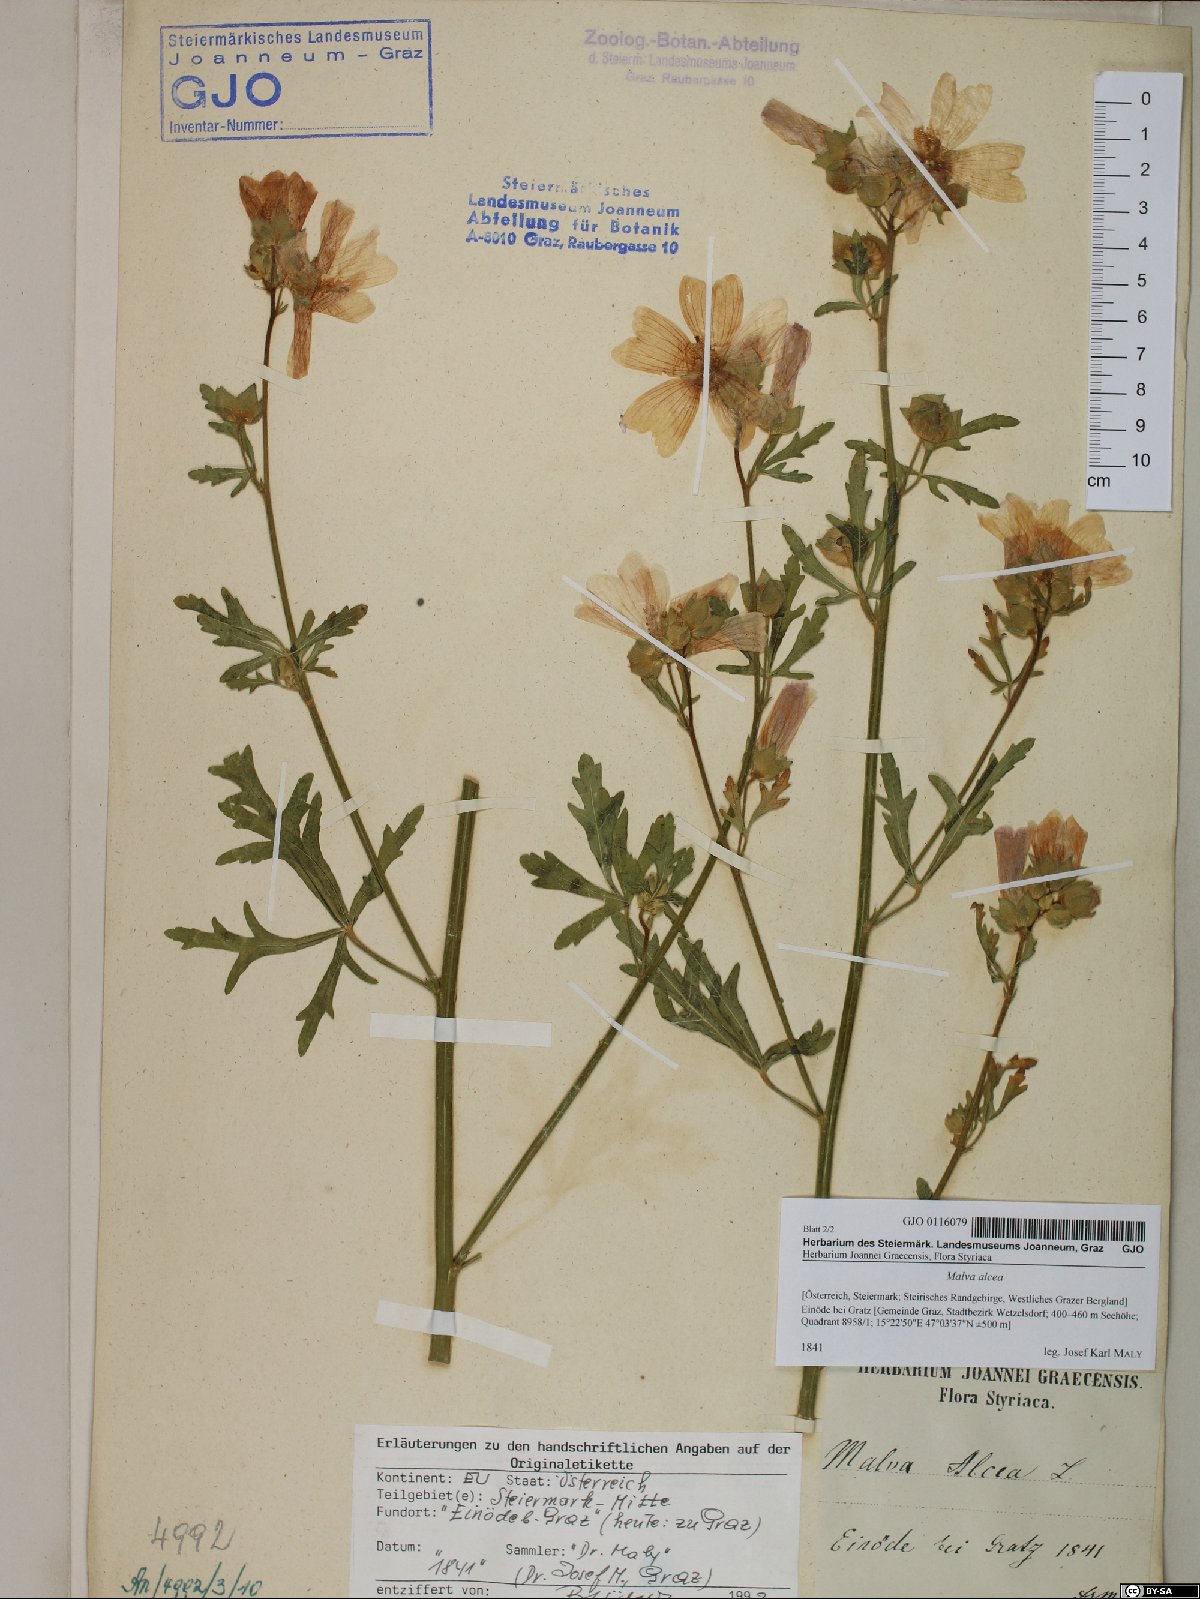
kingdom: Plantae
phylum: Tracheophyta
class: Magnoliopsida
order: Malvales
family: Malvaceae
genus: Malva
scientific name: Malva alcea
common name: Greater musk-mallow
